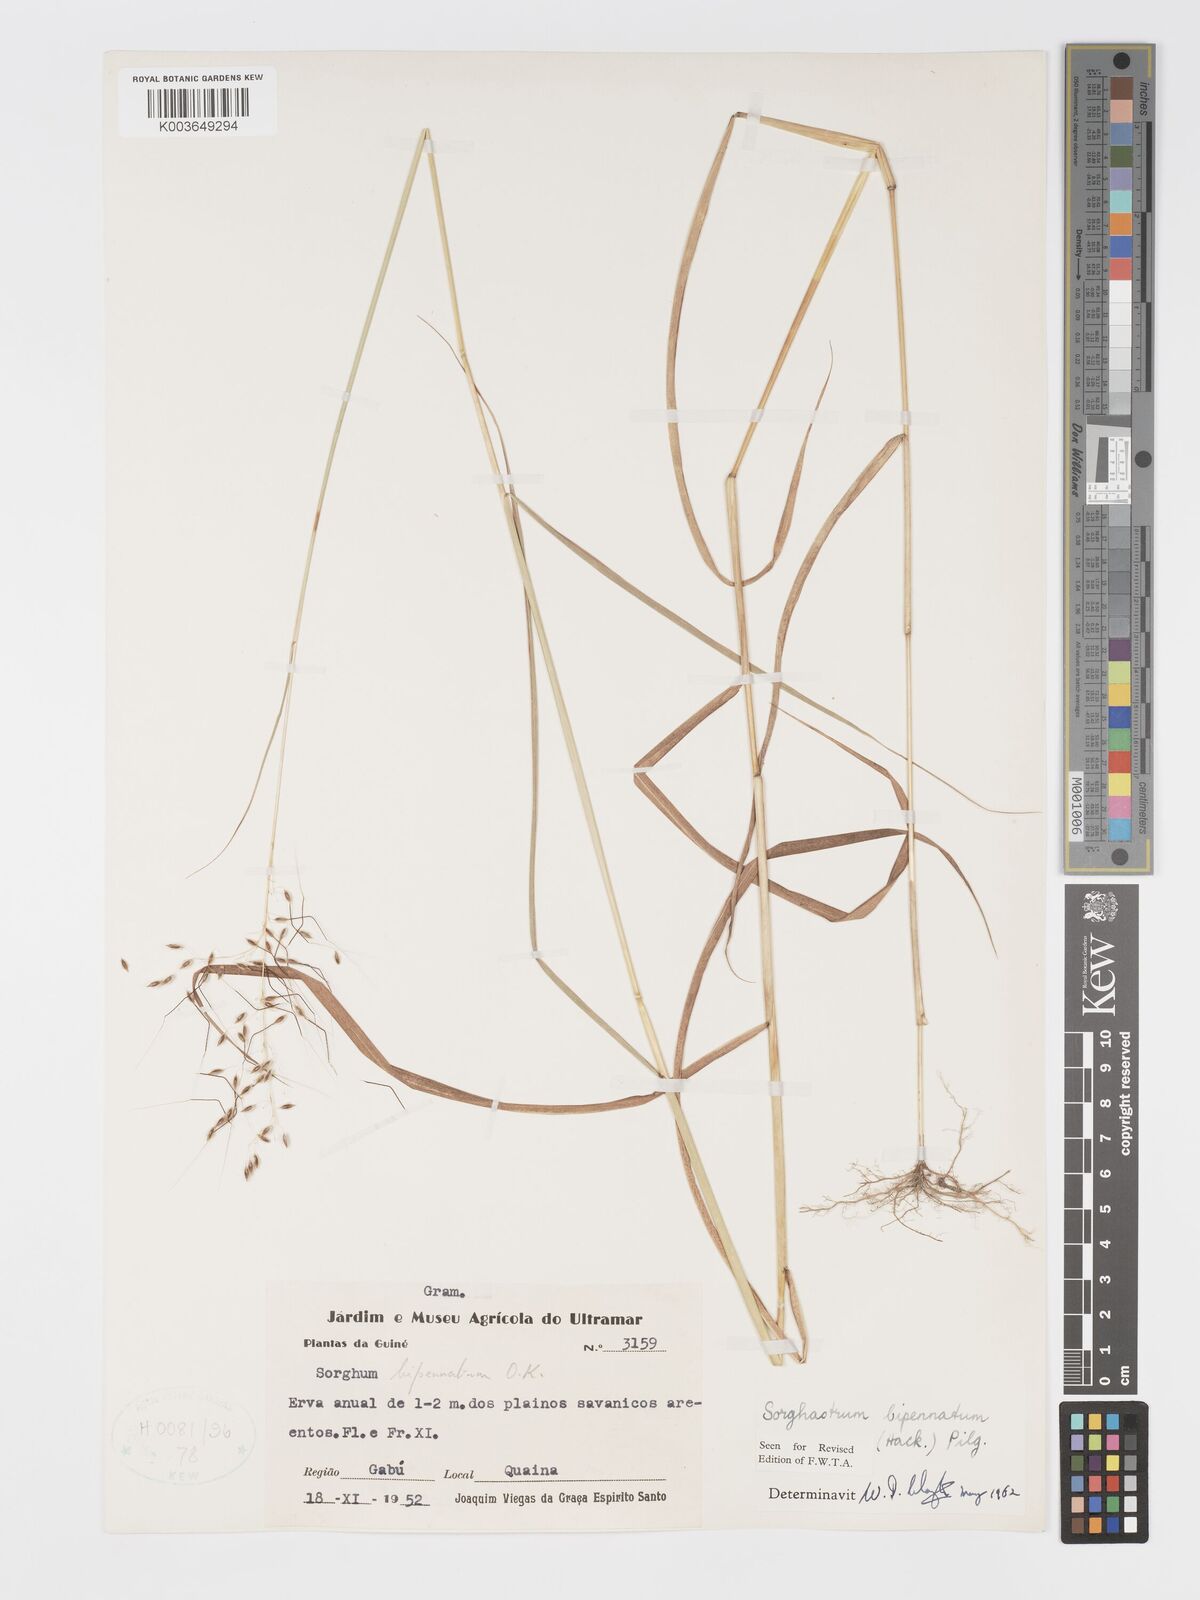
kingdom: Plantae
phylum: Tracheophyta
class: Liliopsida
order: Poales
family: Poaceae
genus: Sorghastrum
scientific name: Sorghastrum incompletum
